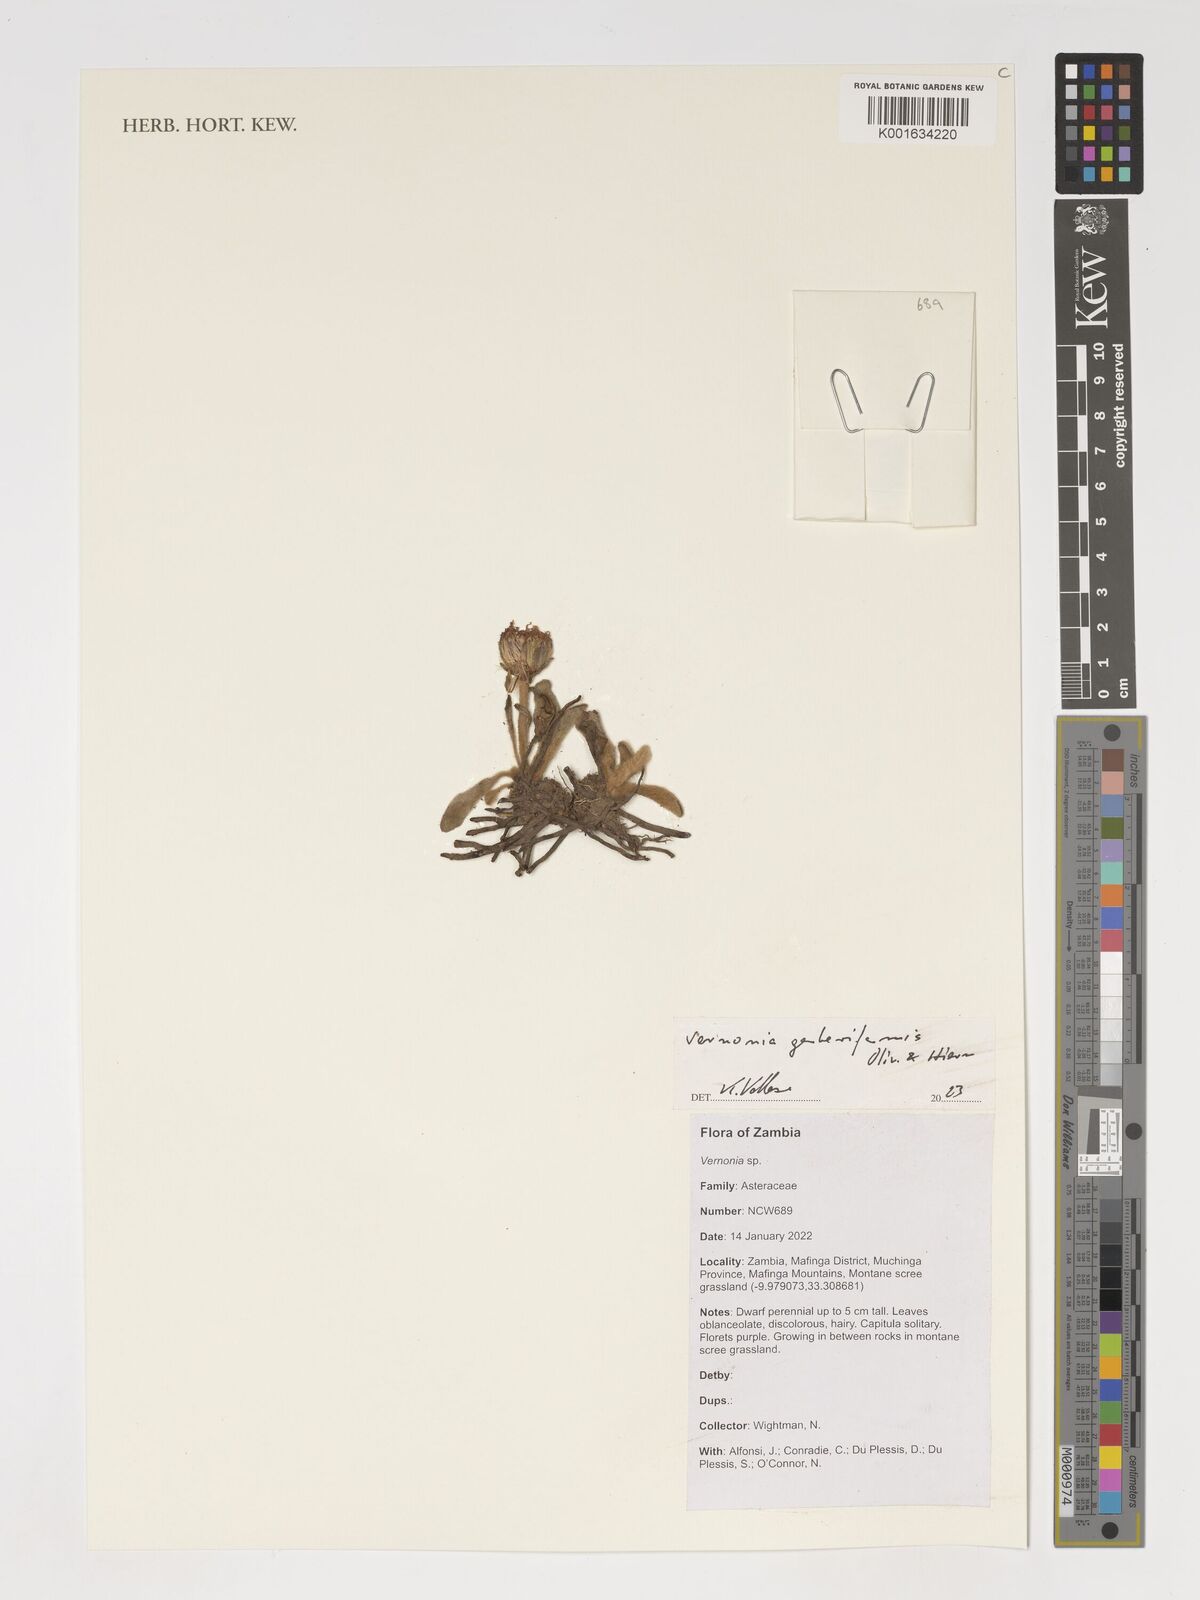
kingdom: Plantae
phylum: Tracheophyta
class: Magnoliopsida
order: Asterales
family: Asteraceae
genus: Linzia
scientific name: Linzia gerberiformis
